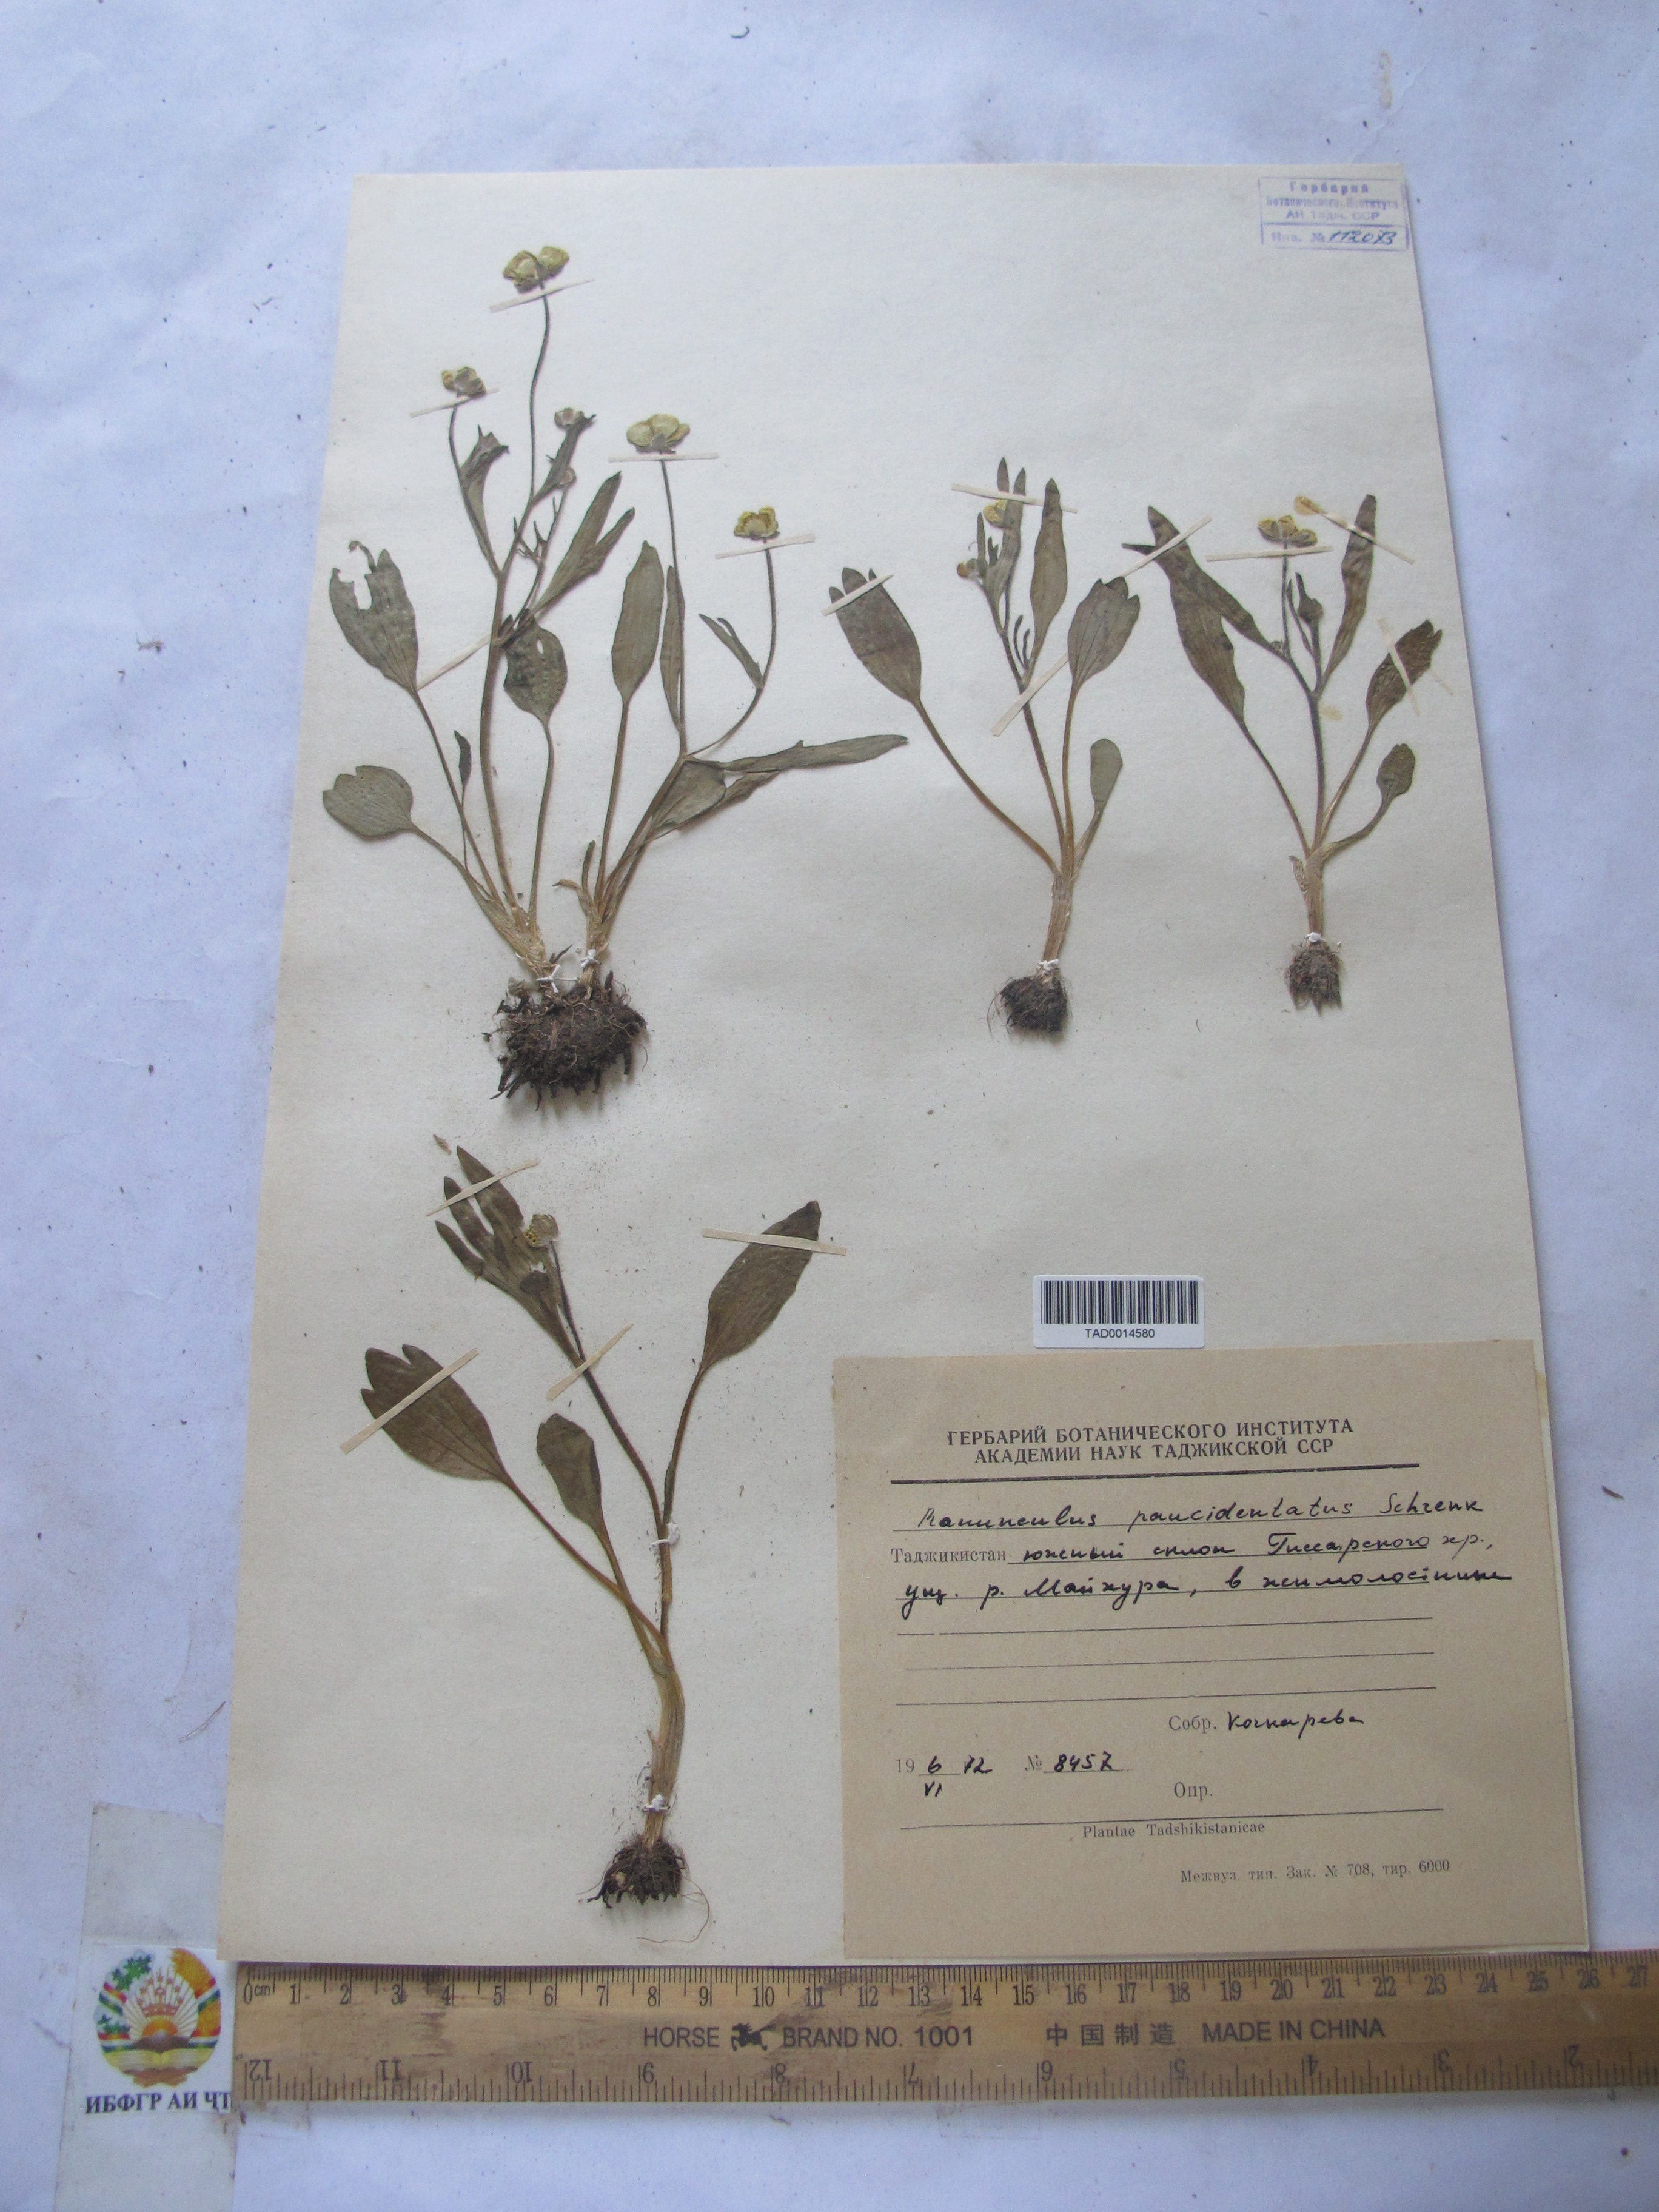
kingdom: Plantae
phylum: Tracheophyta
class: Magnoliopsida
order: Ranunculales
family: Ranunculaceae
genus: Ranunculus
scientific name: Ranunculus paucidentatus
